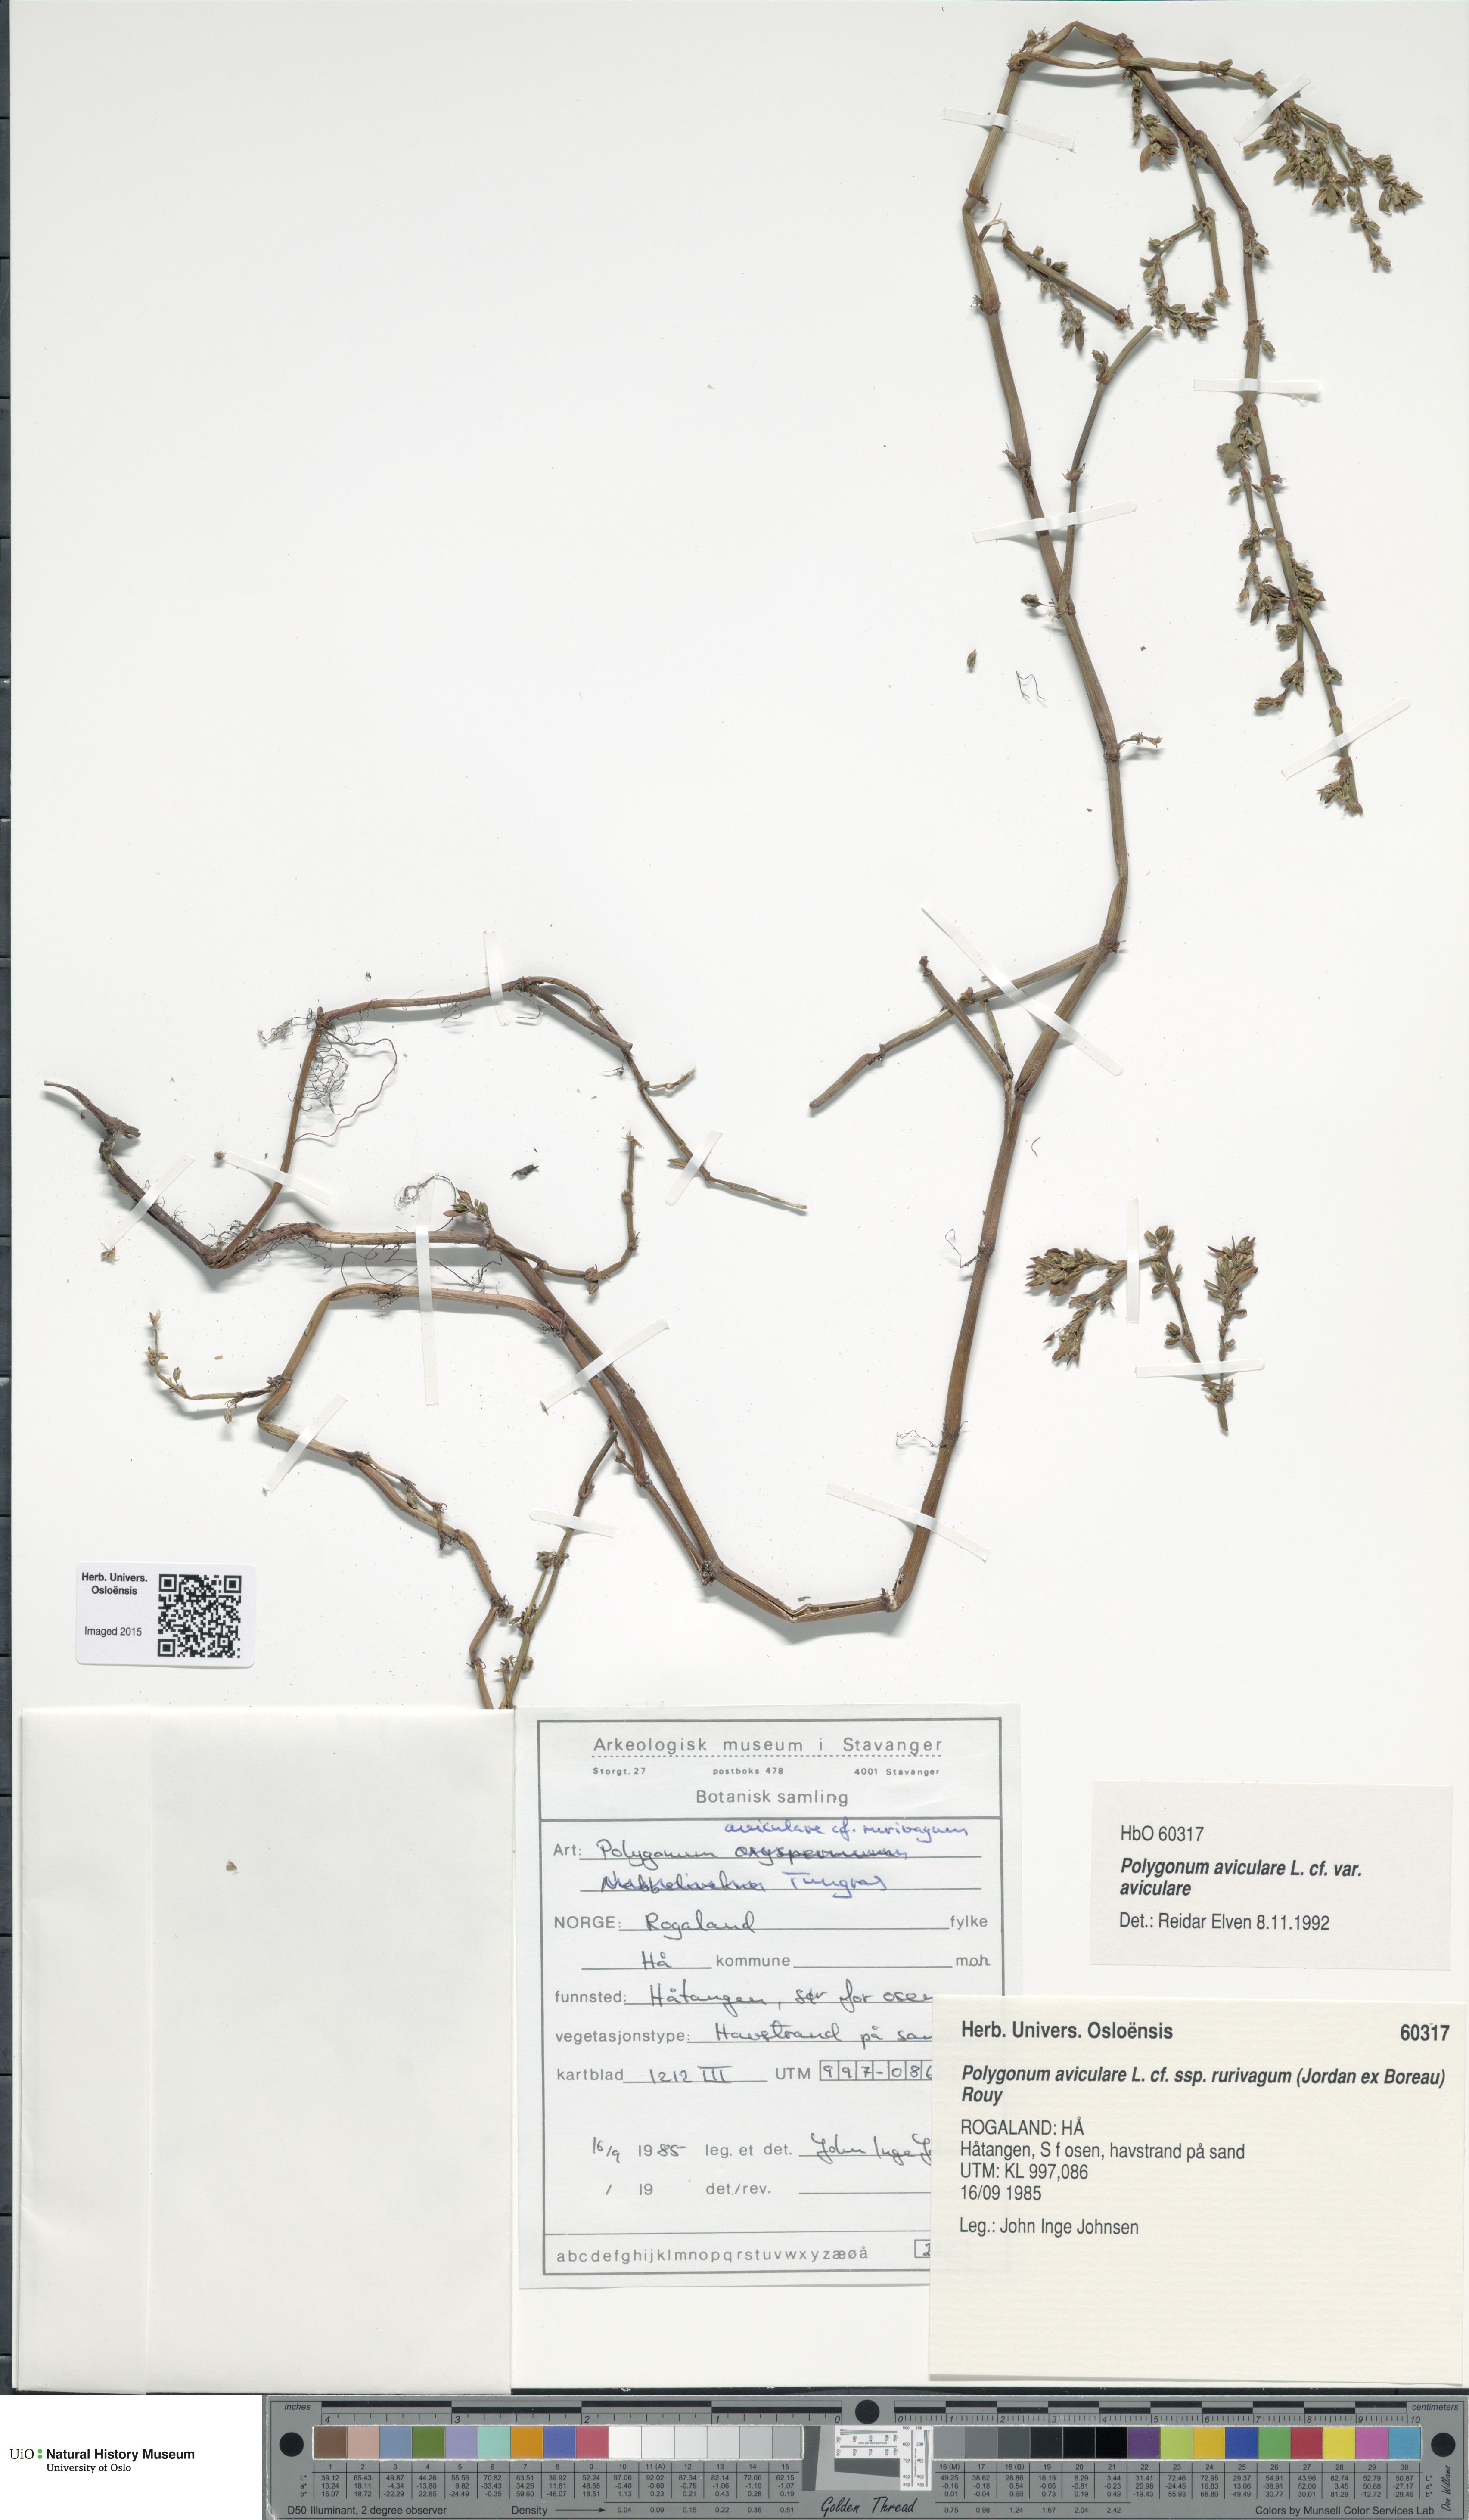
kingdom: Plantae
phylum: Tracheophyta
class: Magnoliopsida
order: Caryophyllales
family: Polygonaceae
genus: Polygonum
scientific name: Polygonum aviculare
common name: Prostrate knotweed
